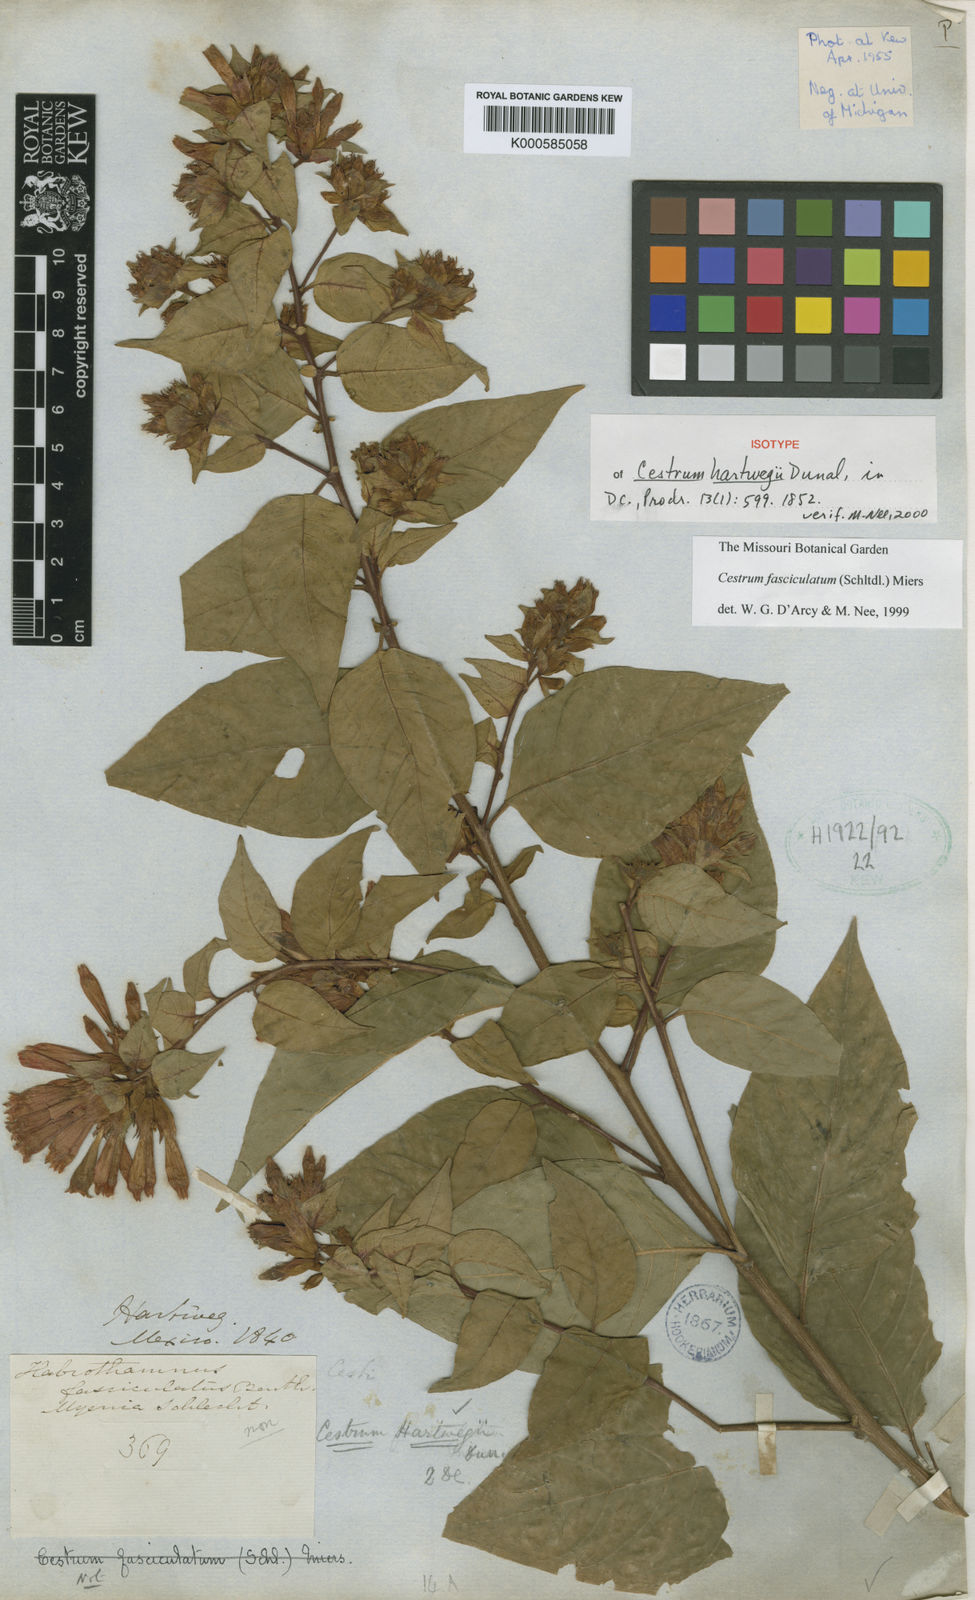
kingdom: Plantae
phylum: Tracheophyta
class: Magnoliopsida
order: Solanales
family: Solanaceae
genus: Cestrum
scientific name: Cestrum hartwegii
